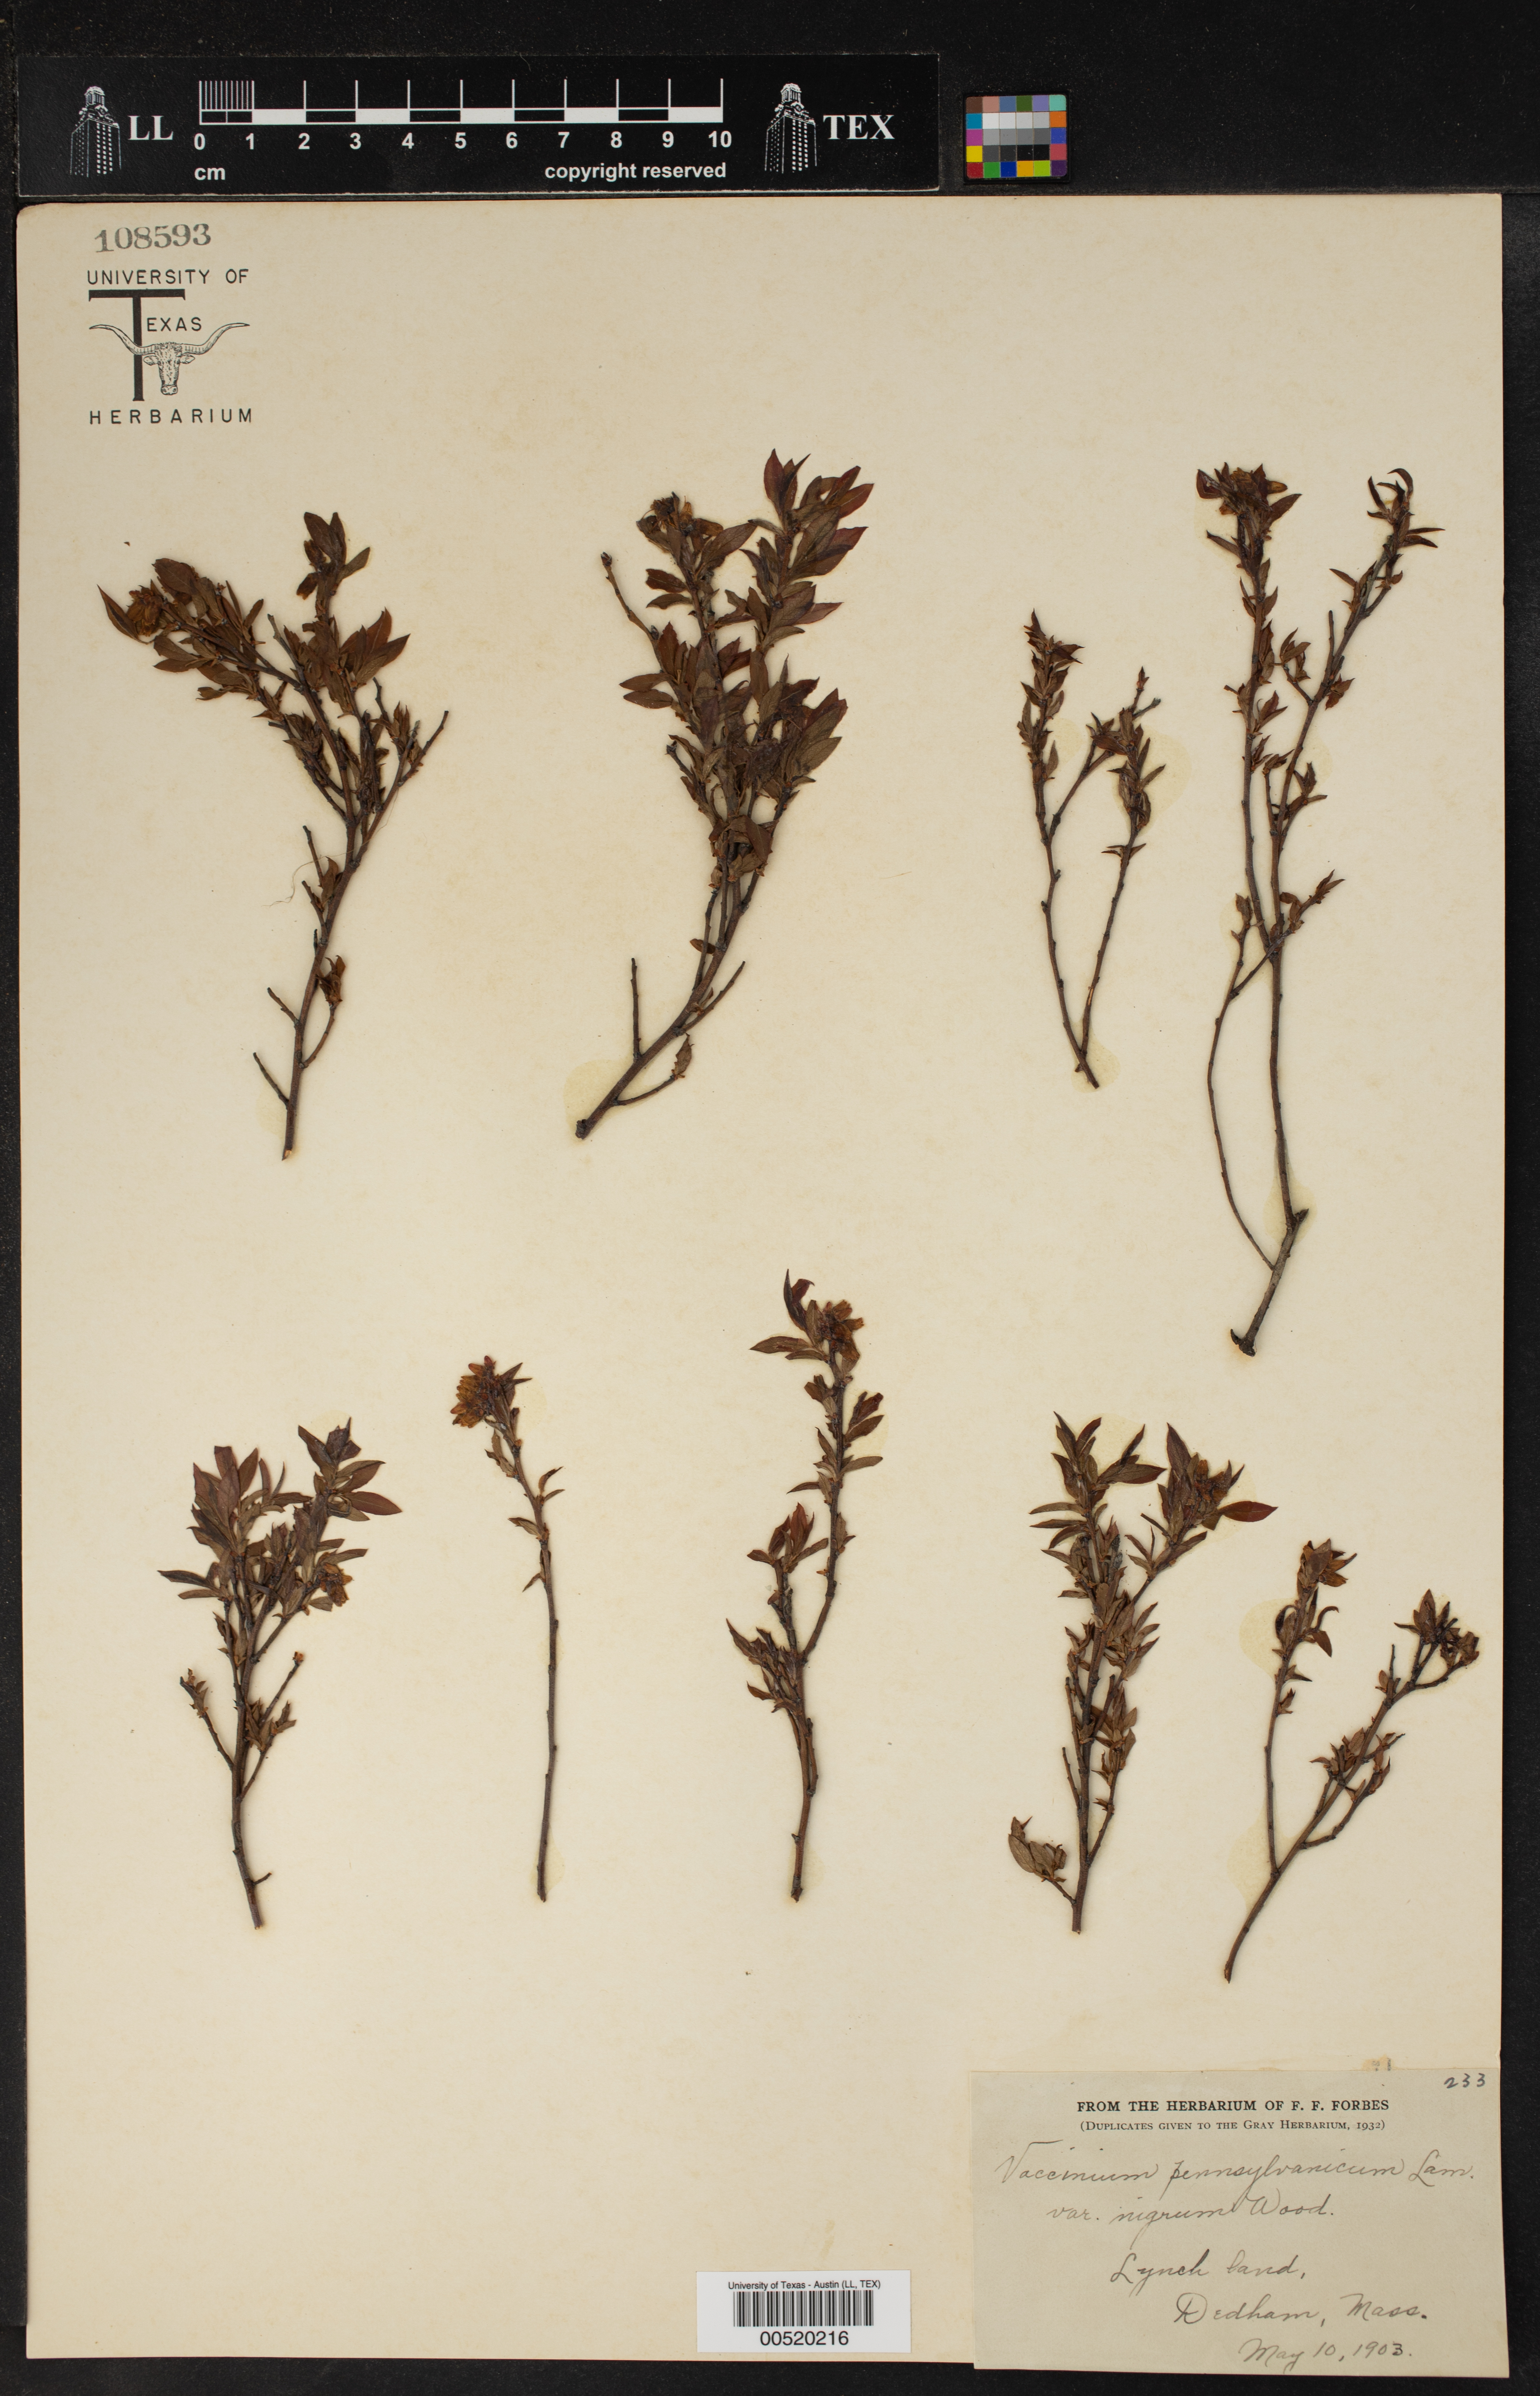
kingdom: Plantae
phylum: Tracheophyta
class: Magnoliopsida
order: Ericales
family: Ericaceae
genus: Vaccinium
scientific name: Vaccinium angustifolium
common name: Early lowbush blueberry
